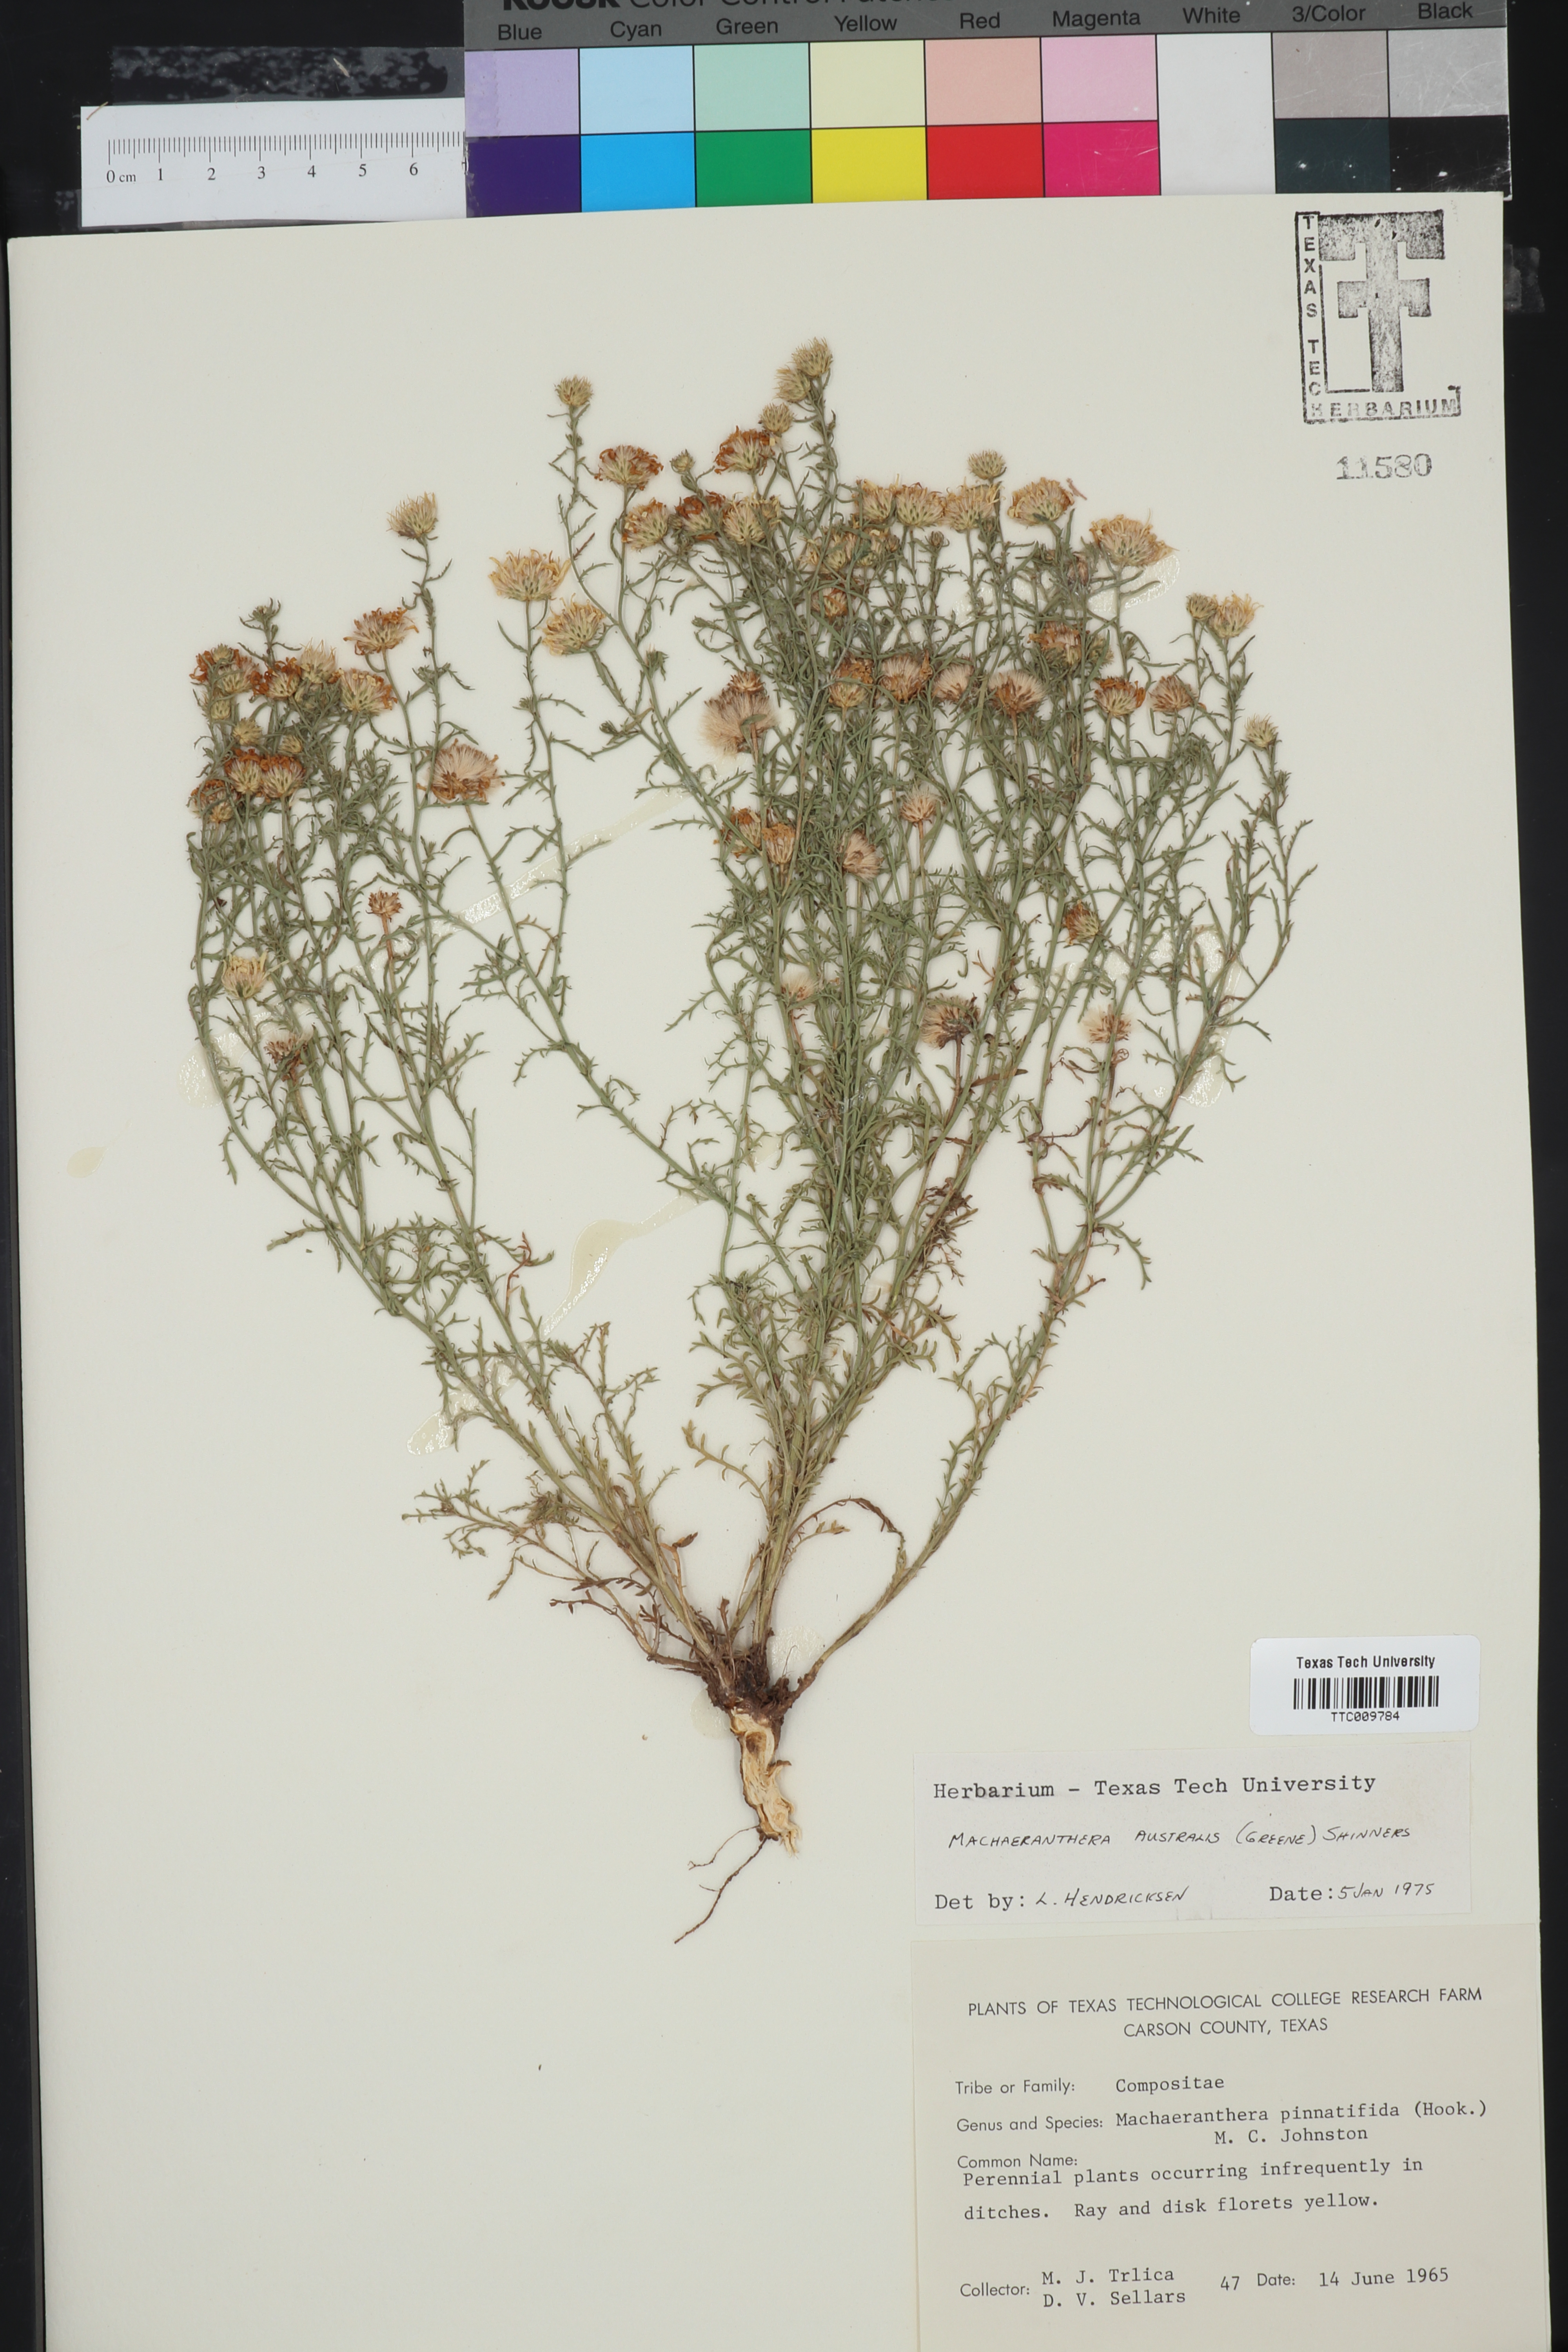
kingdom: Plantae
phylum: Tracheophyta
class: Magnoliopsida
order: Asterales
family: Asteraceae
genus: Xanthisma
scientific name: Xanthisma spinulosum
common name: Spiny goldenweed
